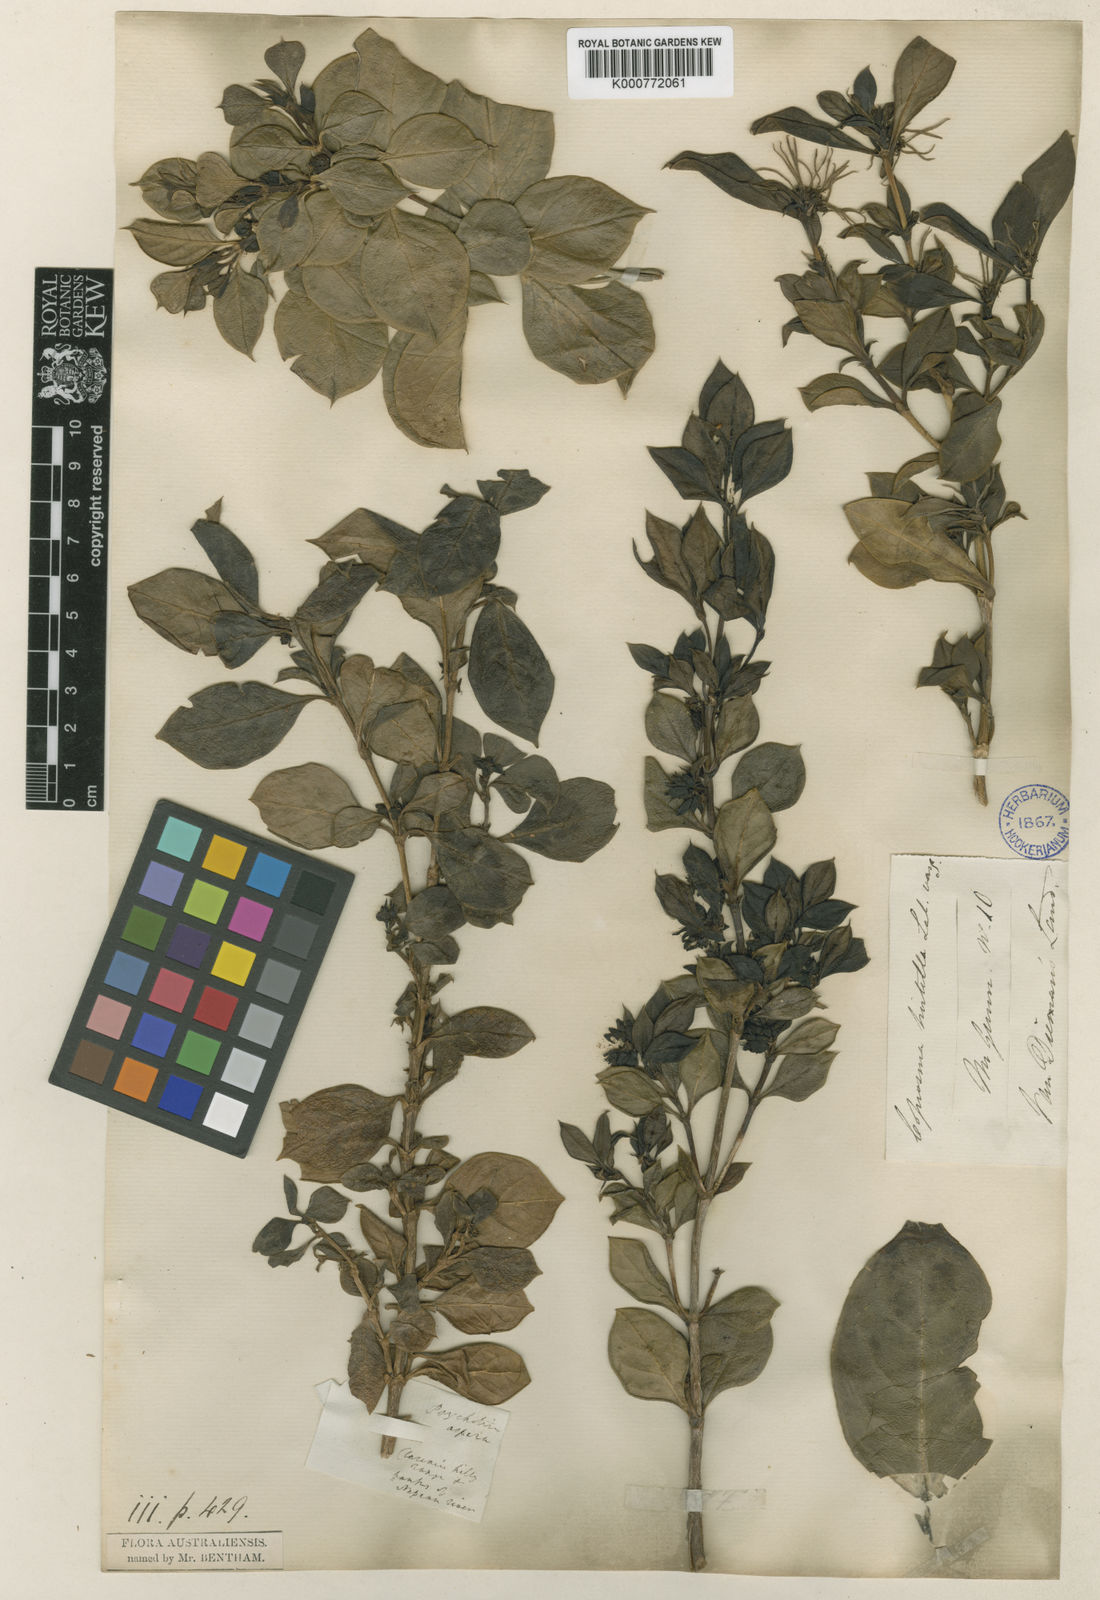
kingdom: Plantae
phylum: Tracheophyta
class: Magnoliopsida
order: Gentianales
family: Rubiaceae
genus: Coprosma
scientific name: Coprosma hirtella
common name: Rough coprosma
